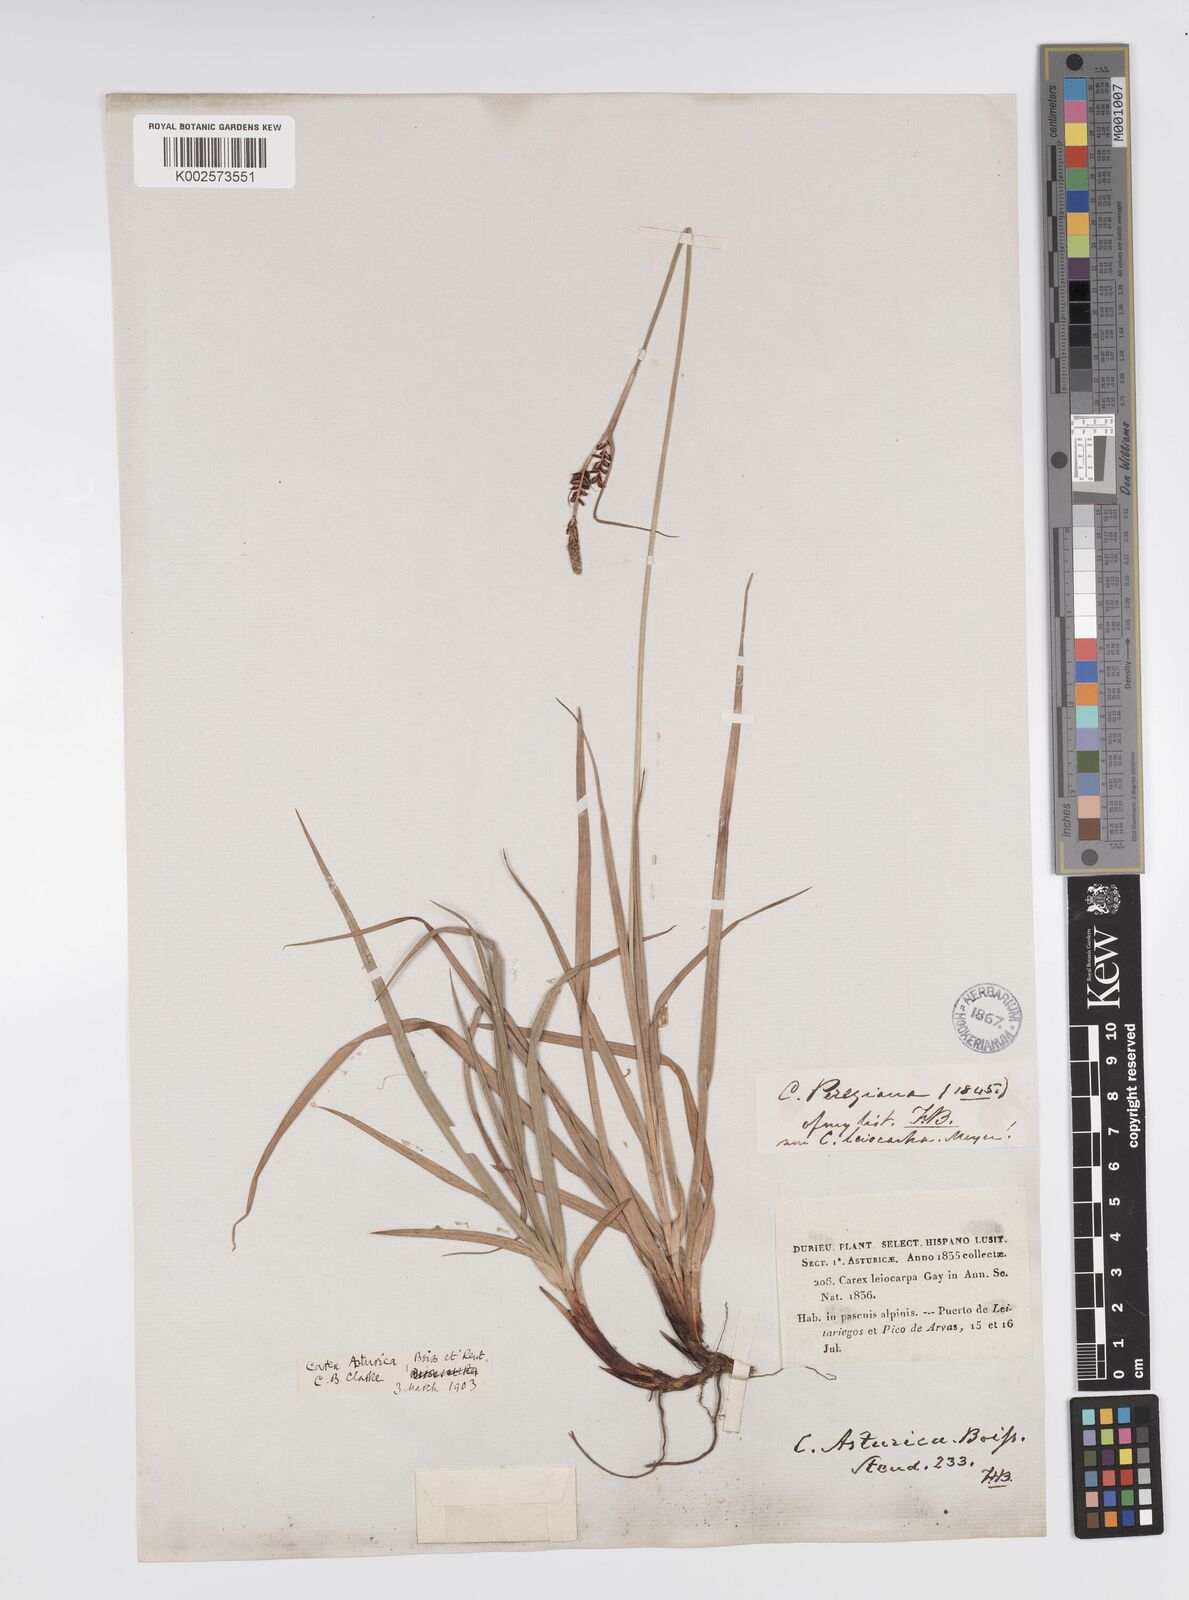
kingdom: Plantae
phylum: Tracheophyta
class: Liliopsida
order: Poales
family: Cyperaceae
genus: Carex
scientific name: Carex asturica
